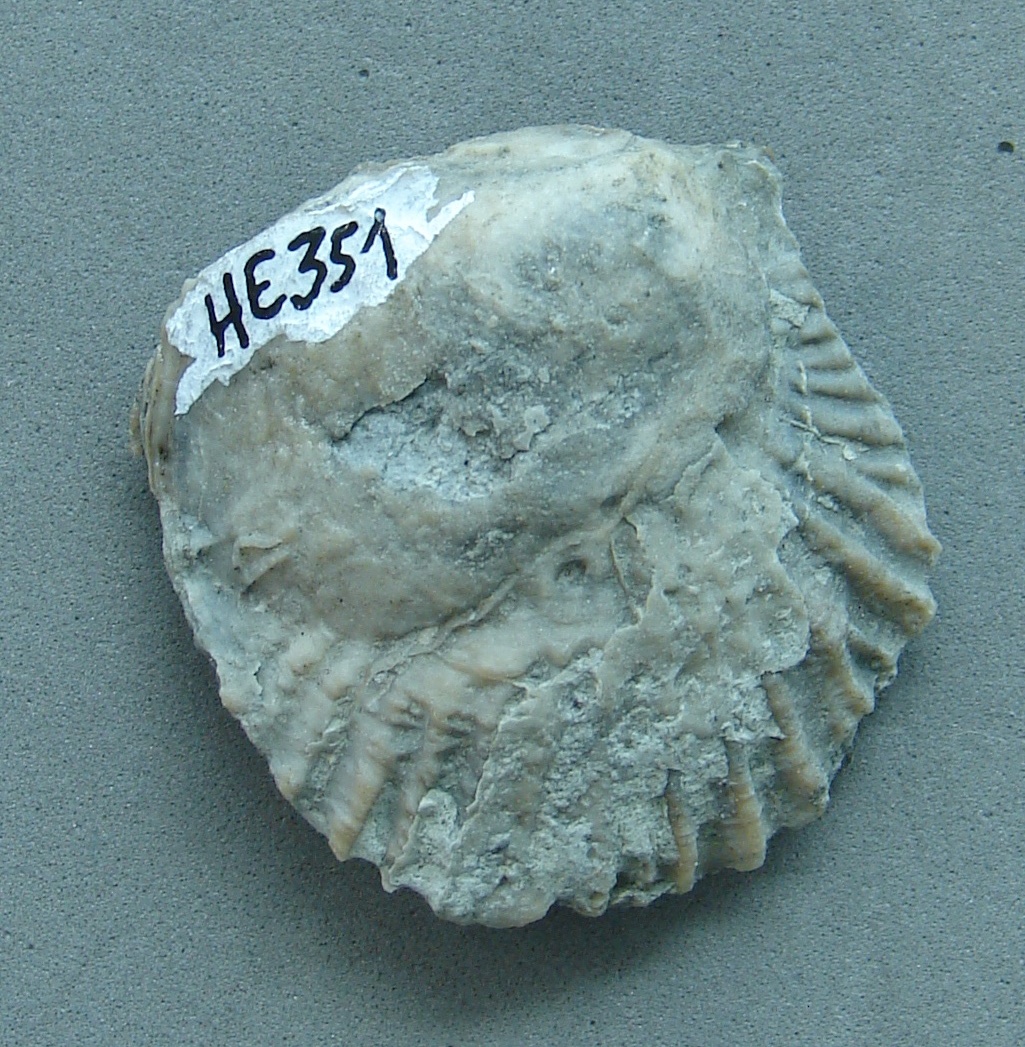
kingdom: Animalia
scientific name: Animalia
